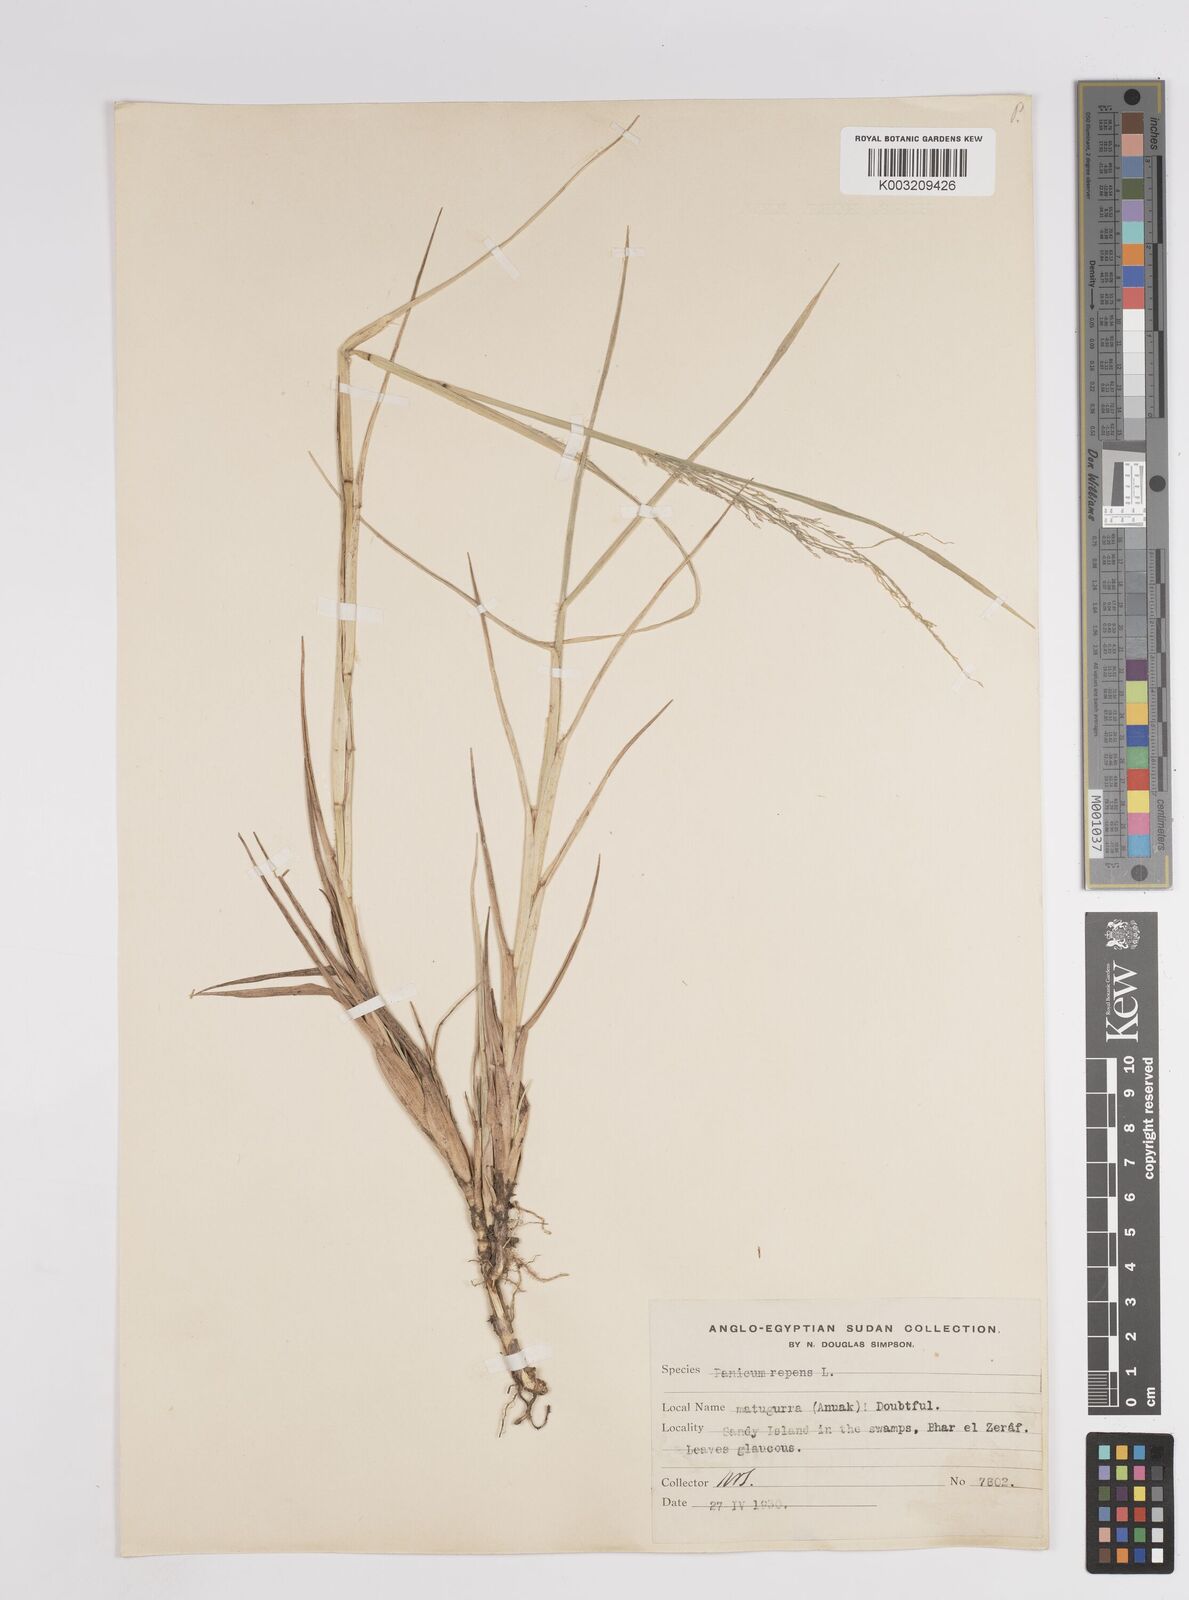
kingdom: Plantae
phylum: Tracheophyta
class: Liliopsida
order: Poales
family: Poaceae
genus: Panicum
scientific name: Panicum repens
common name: Torpedo grass
